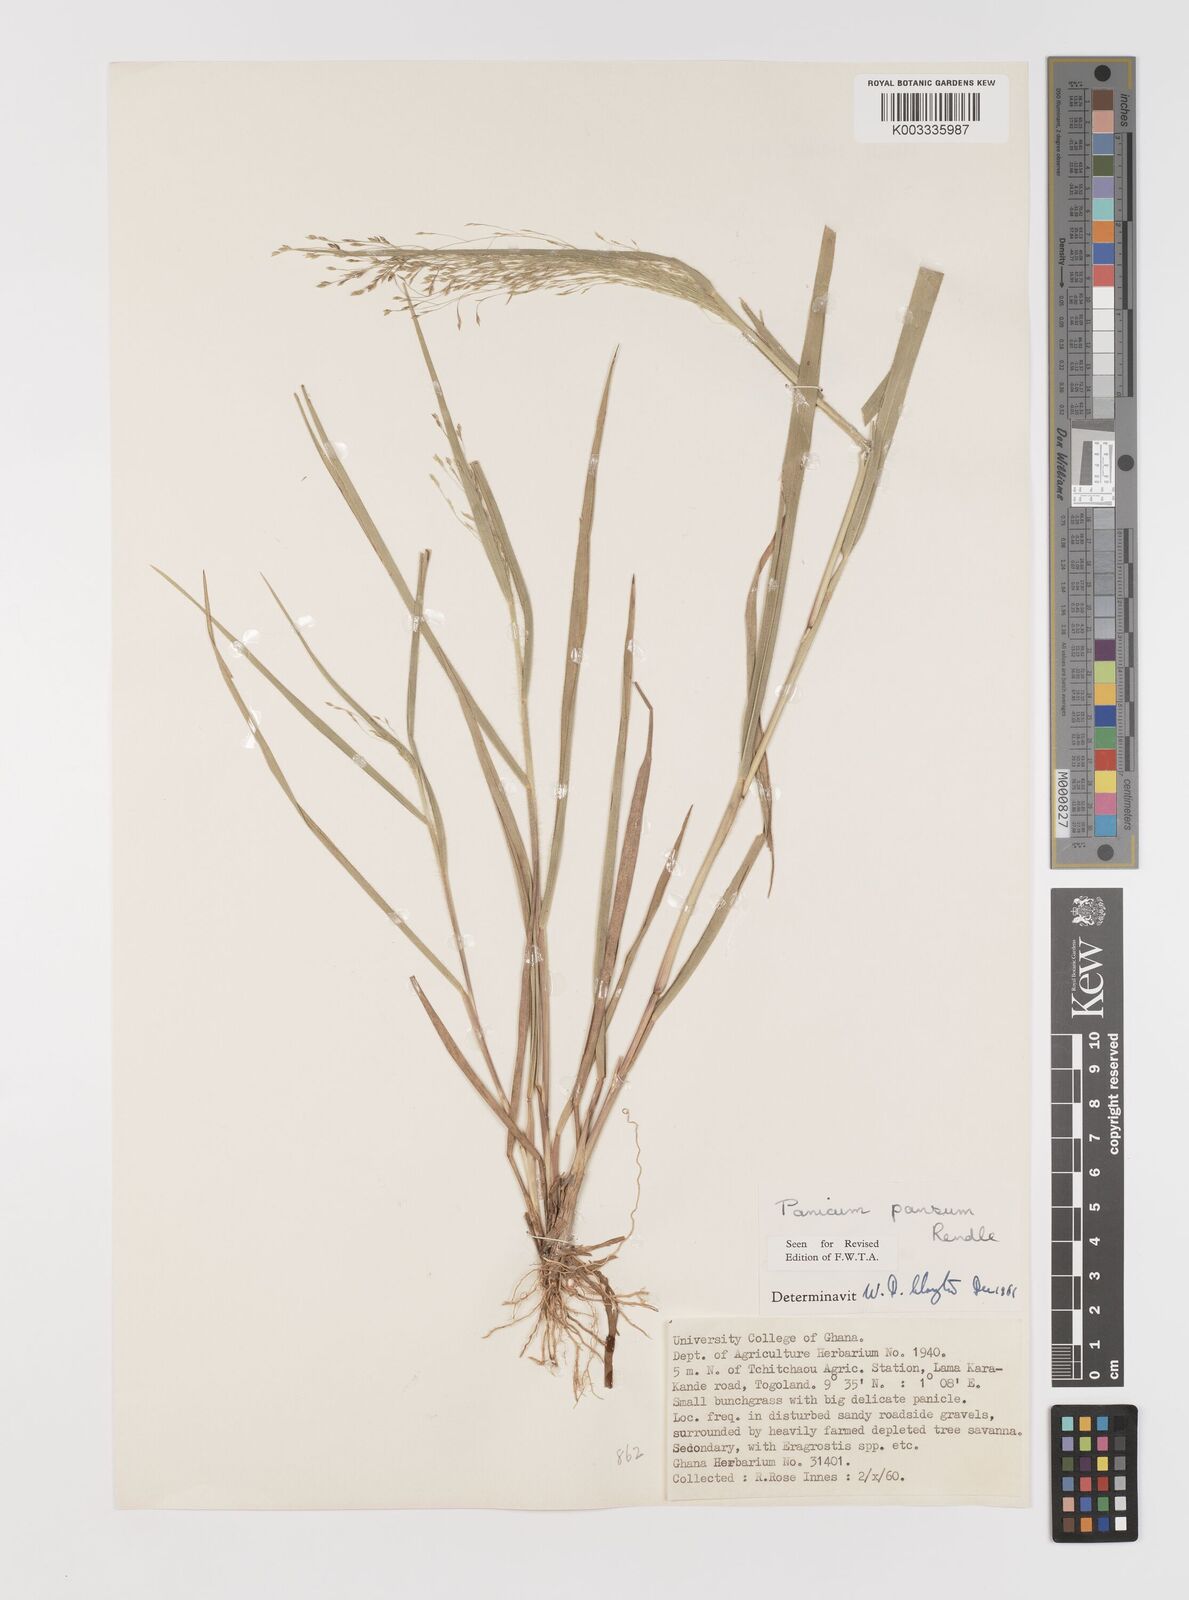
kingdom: Plantae
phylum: Tracheophyta
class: Liliopsida
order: Poales
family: Poaceae
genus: Panicum
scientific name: Panicum pansum
